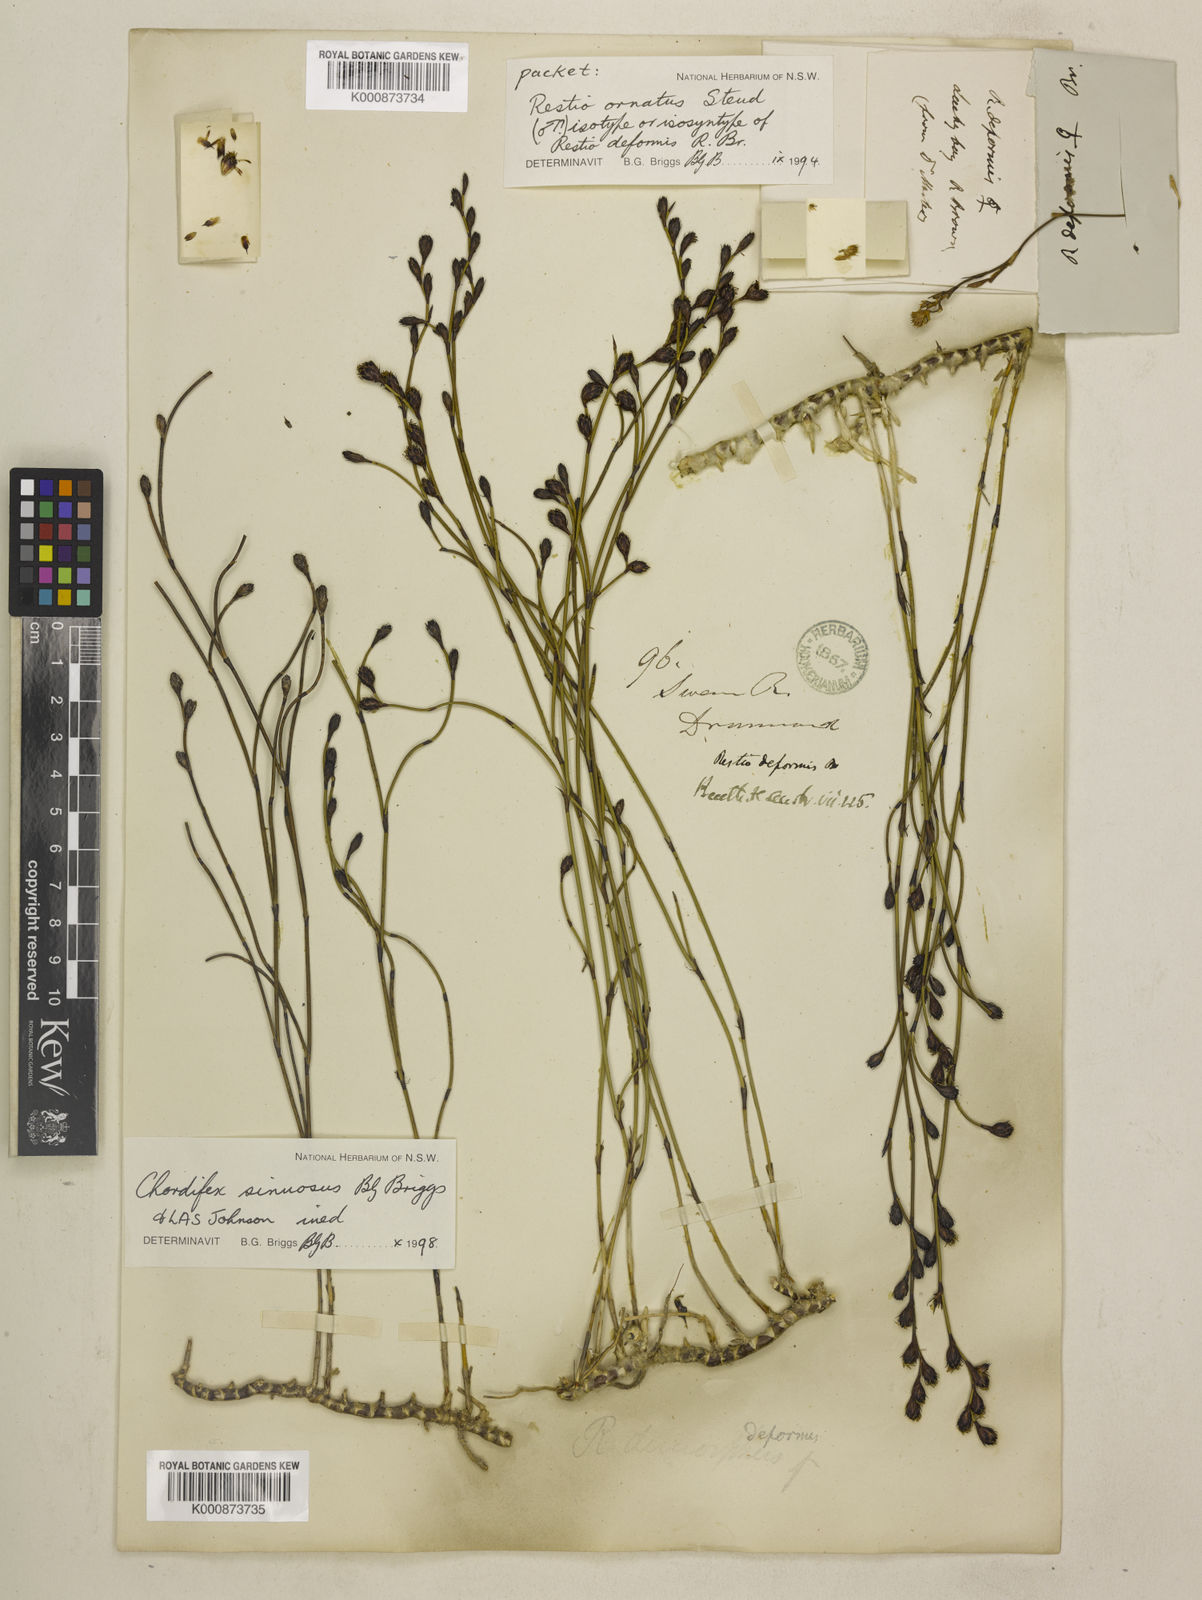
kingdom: Plantae
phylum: Tracheophyta
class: Liliopsida
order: Poales
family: Restionaceae
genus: Chordifex
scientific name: Chordifex ornatus
